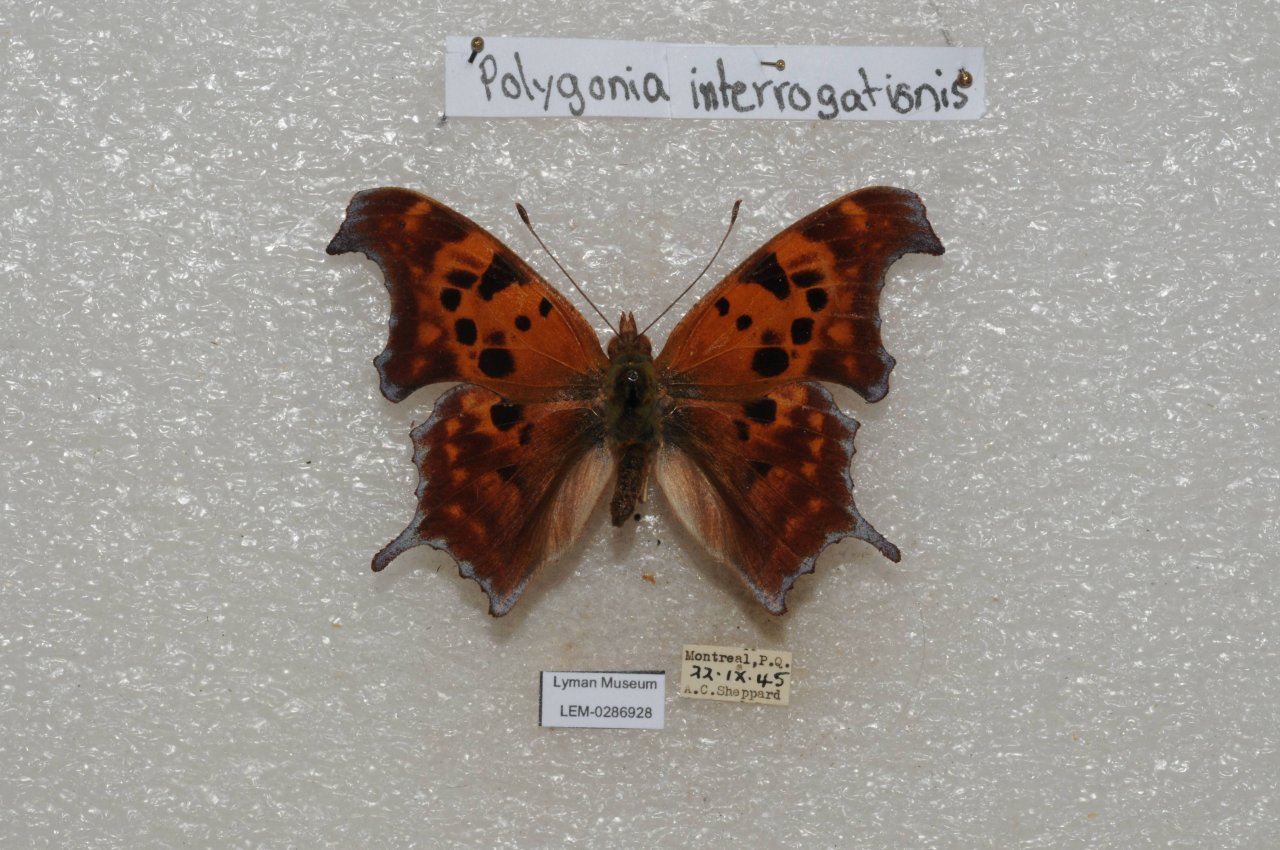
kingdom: Animalia
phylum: Arthropoda
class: Insecta
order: Lepidoptera
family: Nymphalidae
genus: Polygonia
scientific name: Polygonia interrogationis
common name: Question Mark
